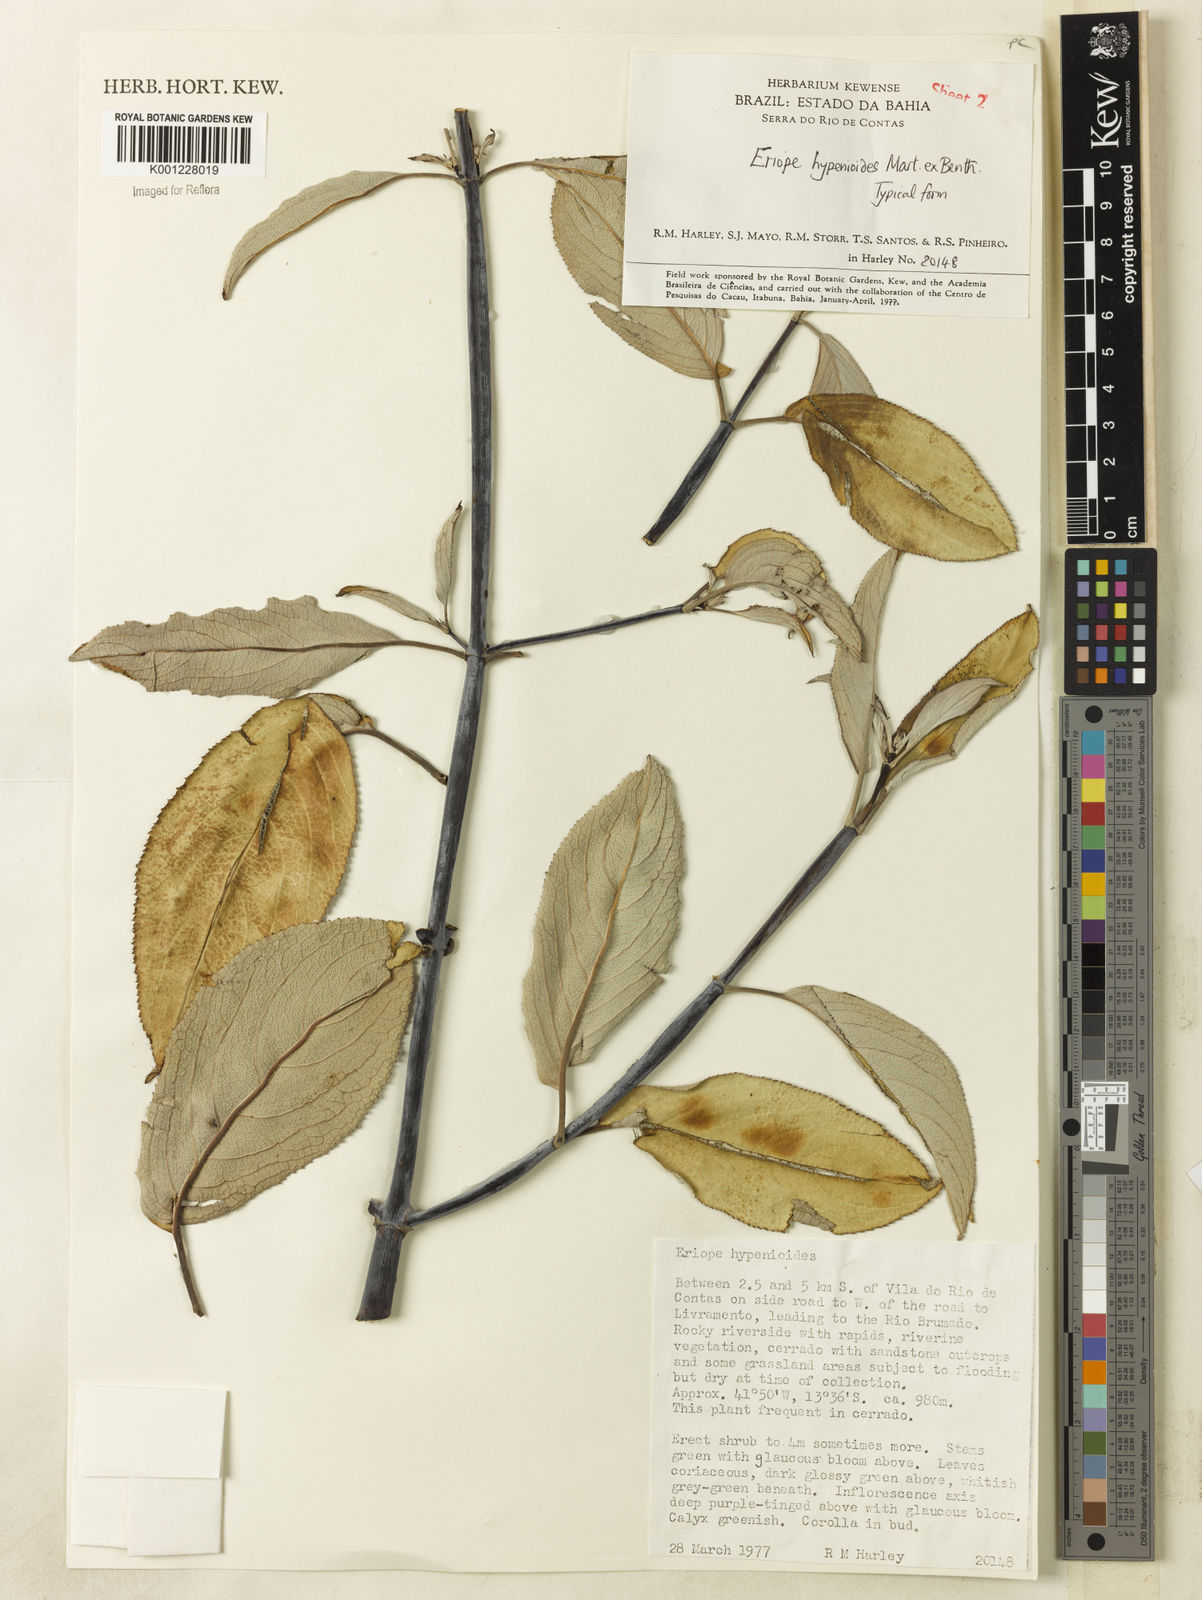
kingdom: Plantae
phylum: Tracheophyta
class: Magnoliopsida
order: Lamiales
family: Lamiaceae
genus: Eriope
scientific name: Eriope hypenioides
